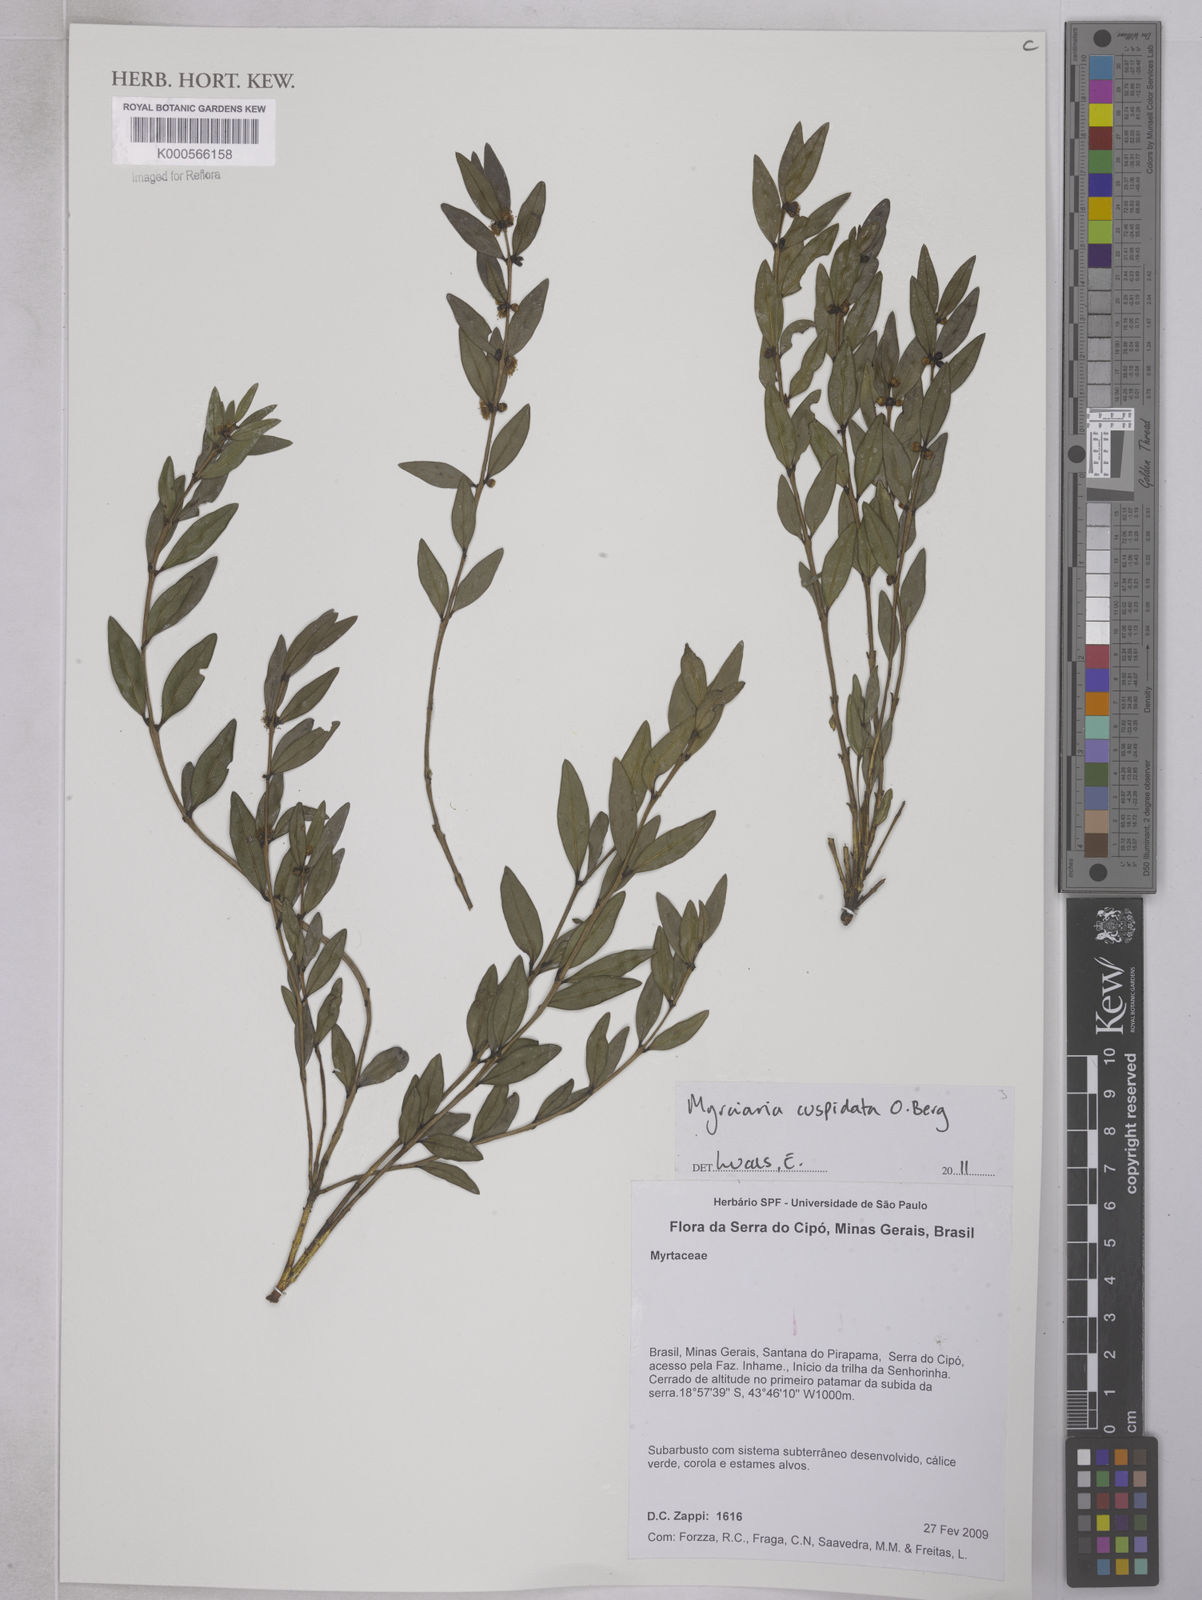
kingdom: Plantae
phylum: Tracheophyta
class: Magnoliopsida
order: Myrtales
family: Myrtaceae
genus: Myrciaria
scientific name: Myrciaria tenella
